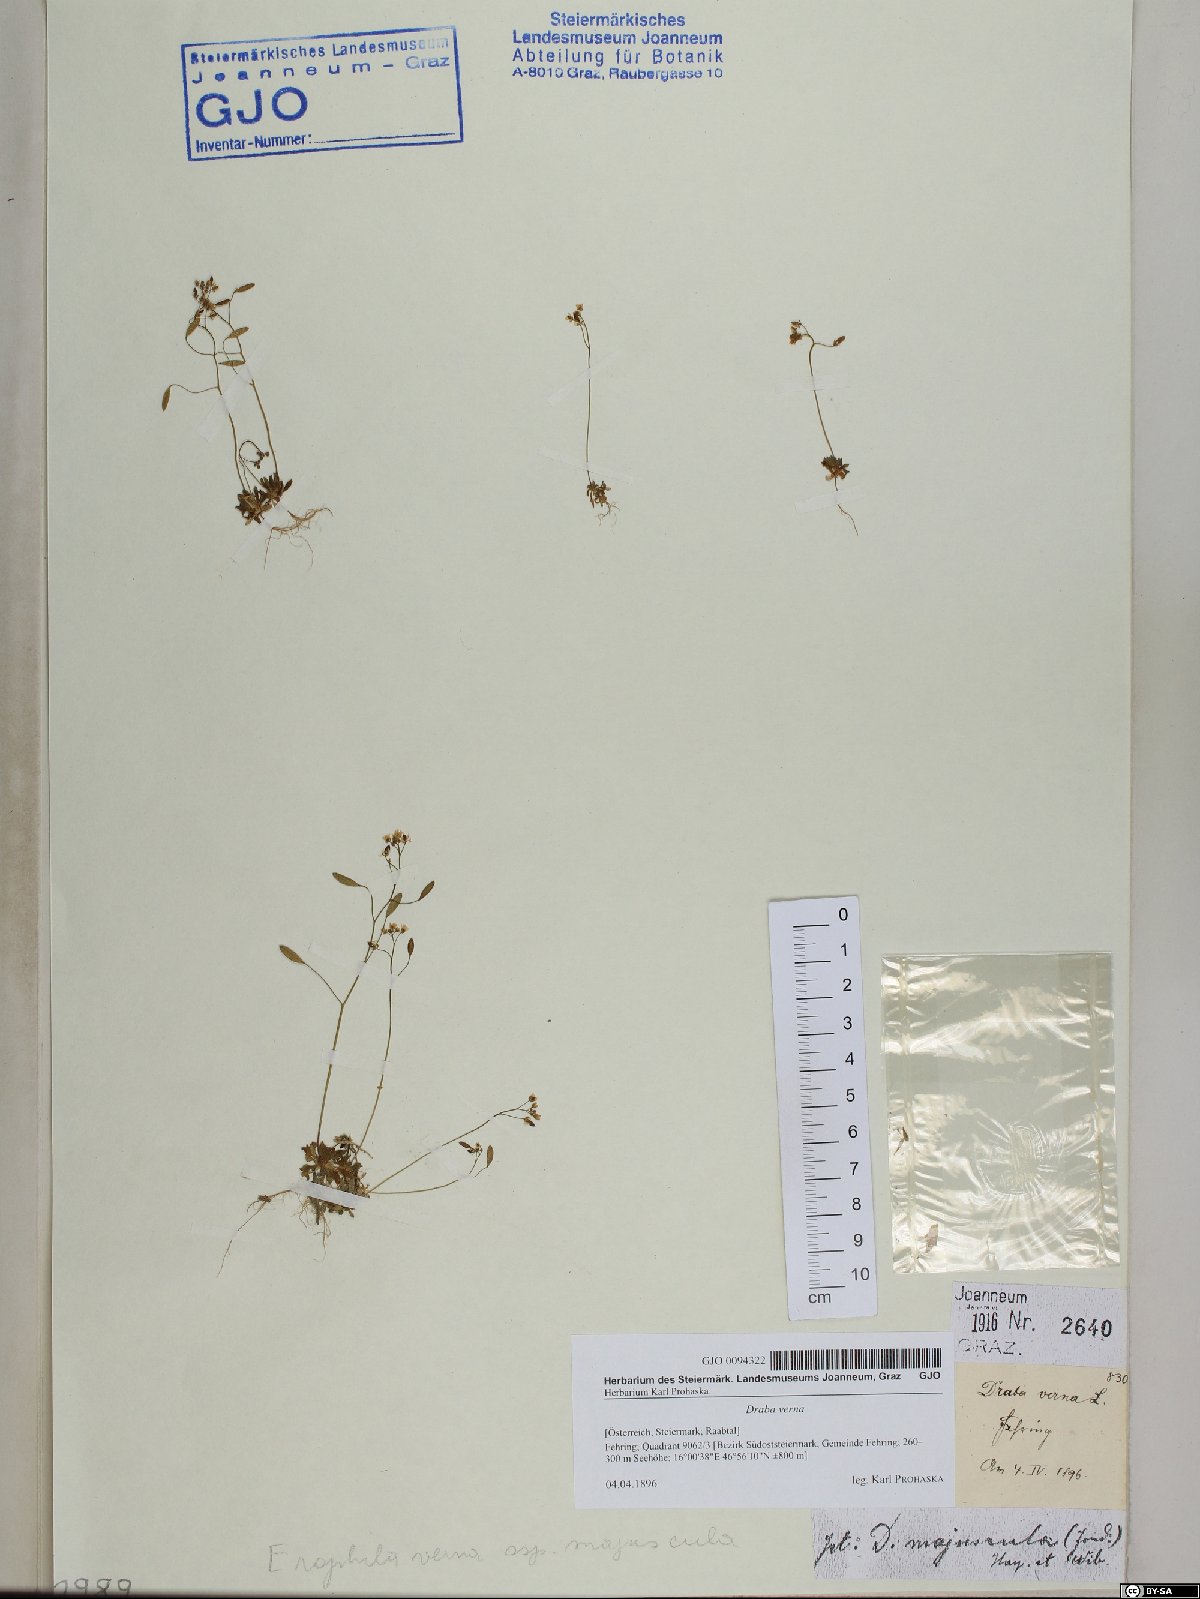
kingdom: Plantae
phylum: Tracheophyta
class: Magnoliopsida
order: Brassicales
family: Brassicaceae
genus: Draba
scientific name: Draba verna
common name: Spring draba
